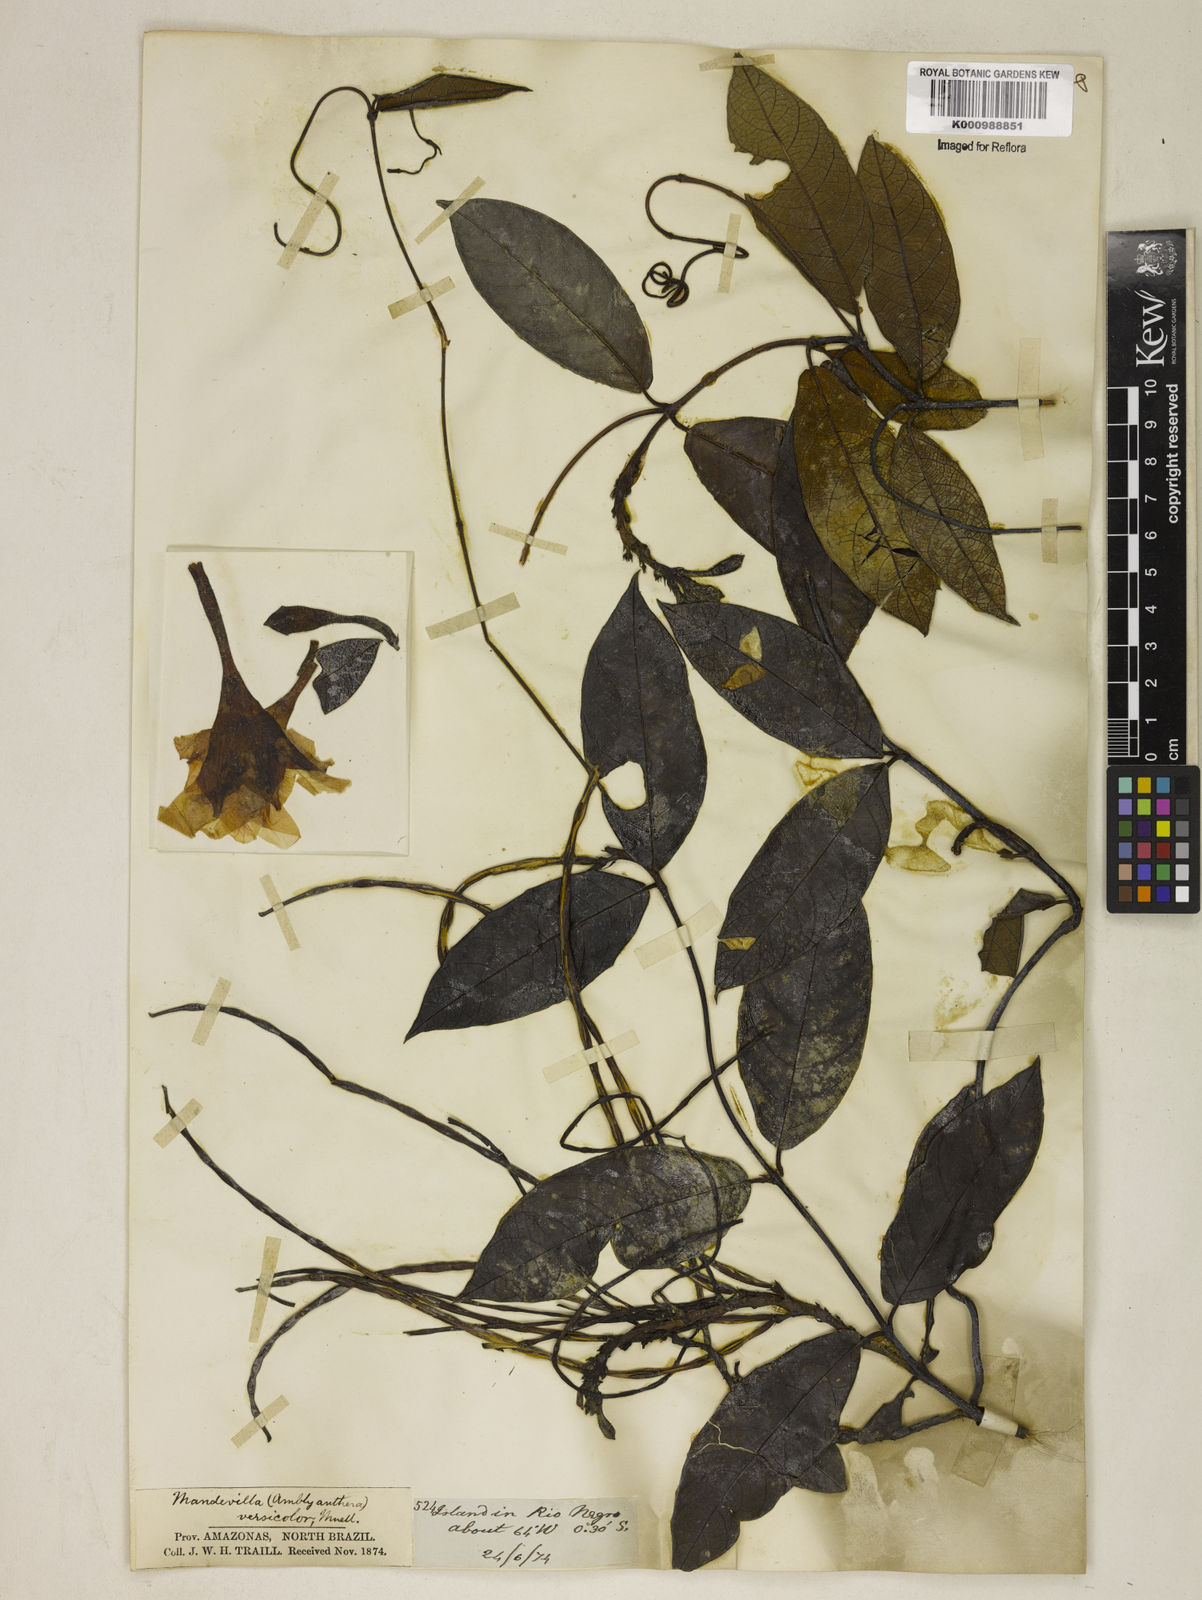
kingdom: Plantae
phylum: Tracheophyta
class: Magnoliopsida
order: Gentianales
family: Apocynaceae
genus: Mandevilla
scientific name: Mandevilla scabra
